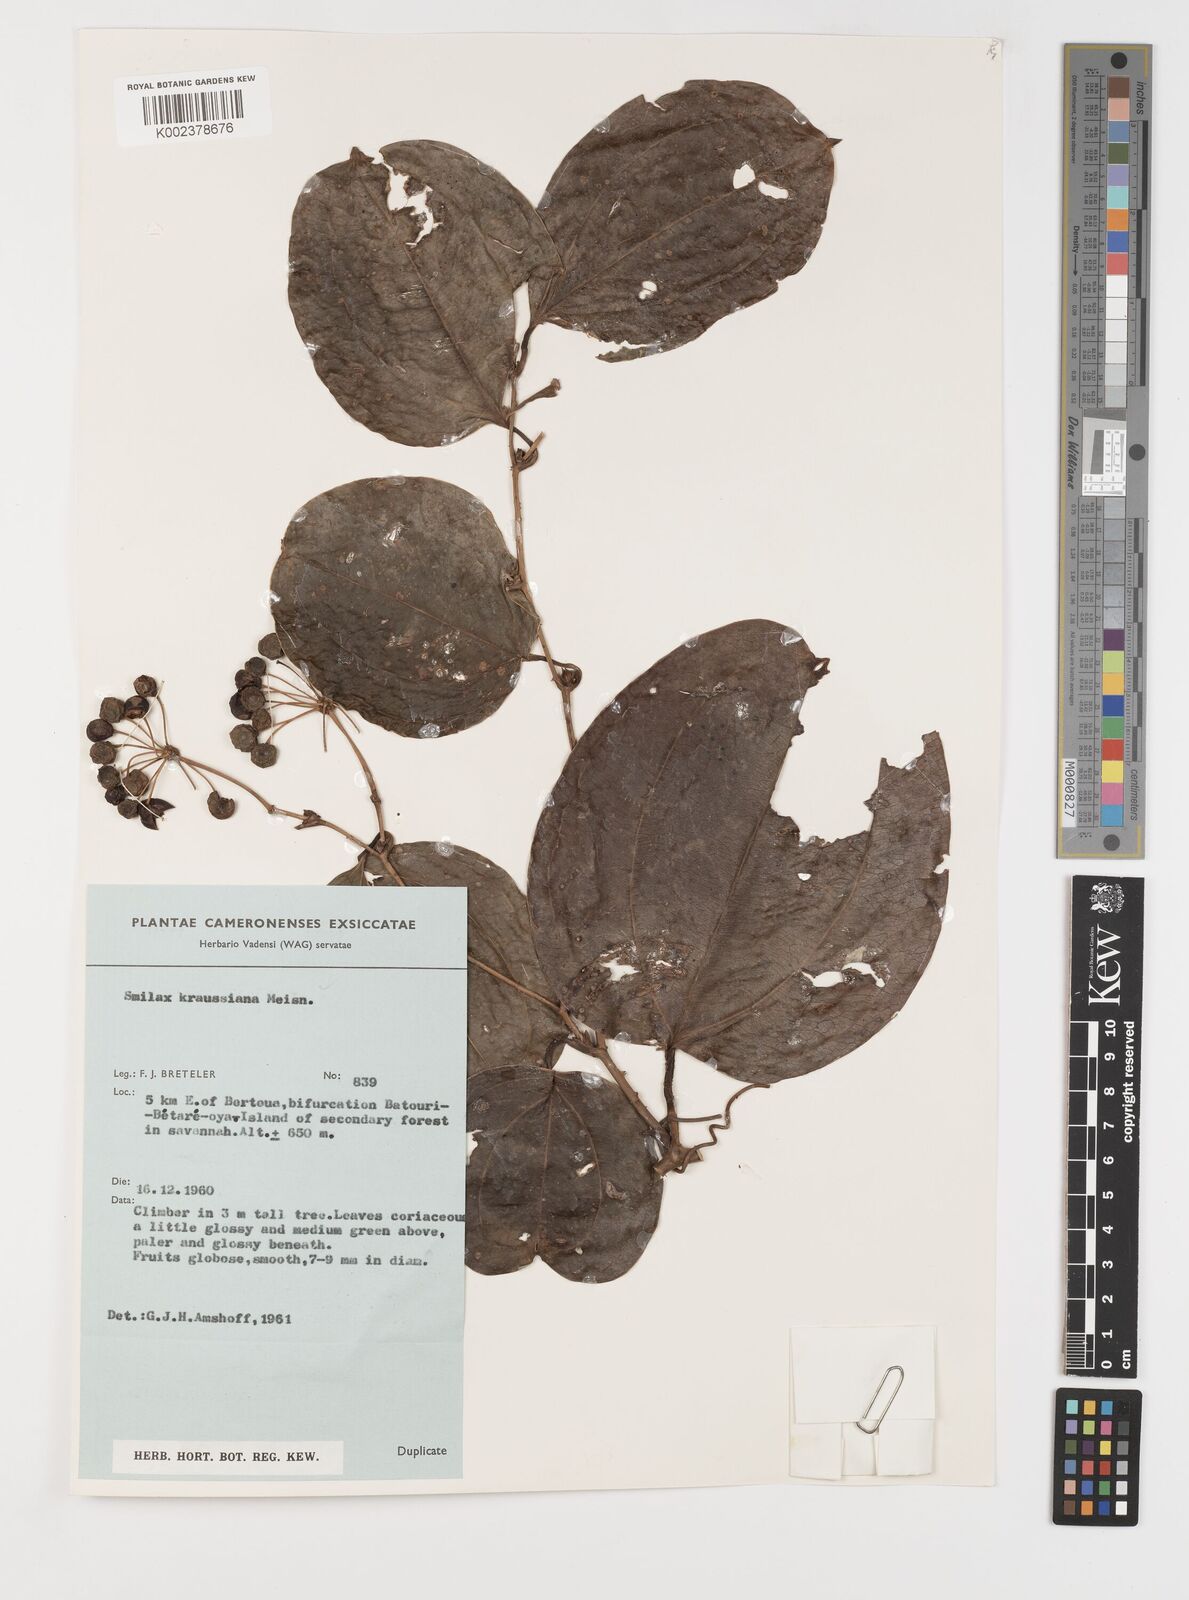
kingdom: Plantae
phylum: Tracheophyta
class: Liliopsida
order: Liliales
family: Smilacaceae
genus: Smilax
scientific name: Smilax anceps
